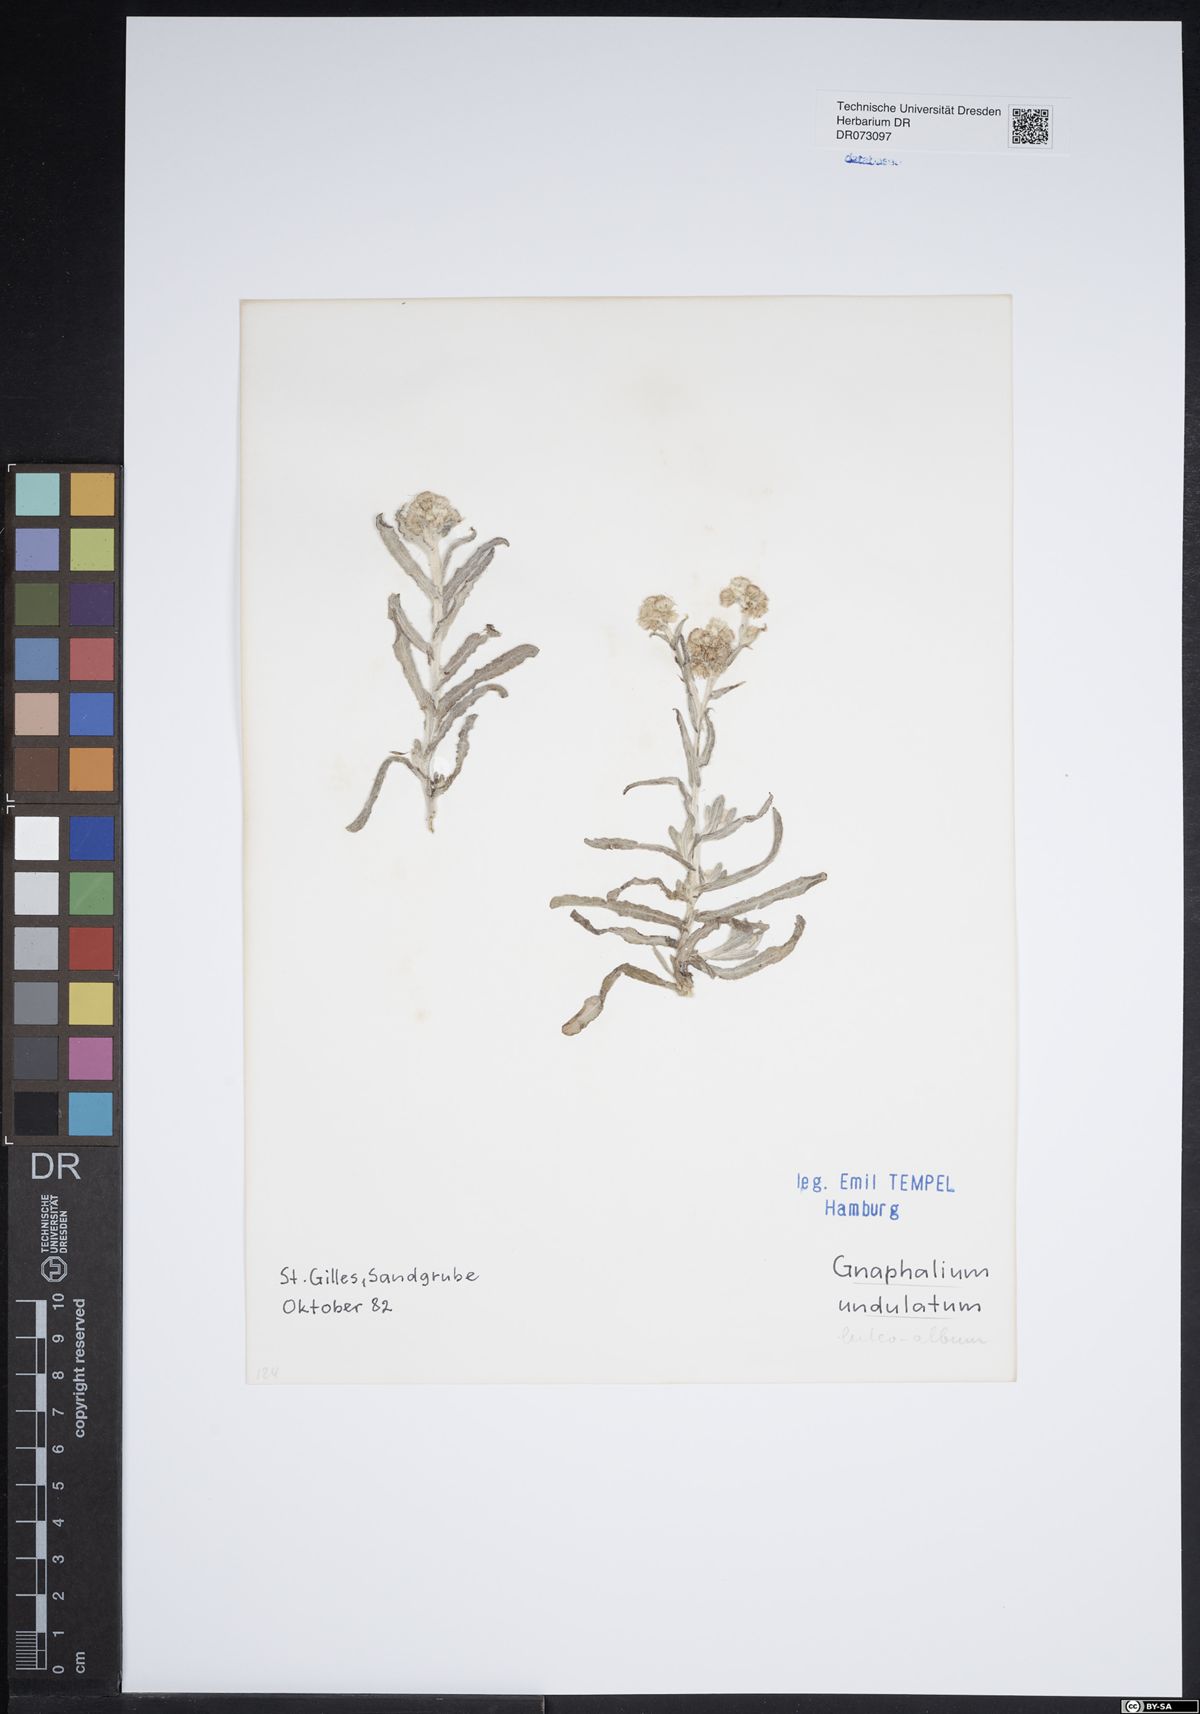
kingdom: Plantae
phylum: Tracheophyta
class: Magnoliopsida
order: Asterales
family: Asteraceae
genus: Cirsium
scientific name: Cirsium acaulon
